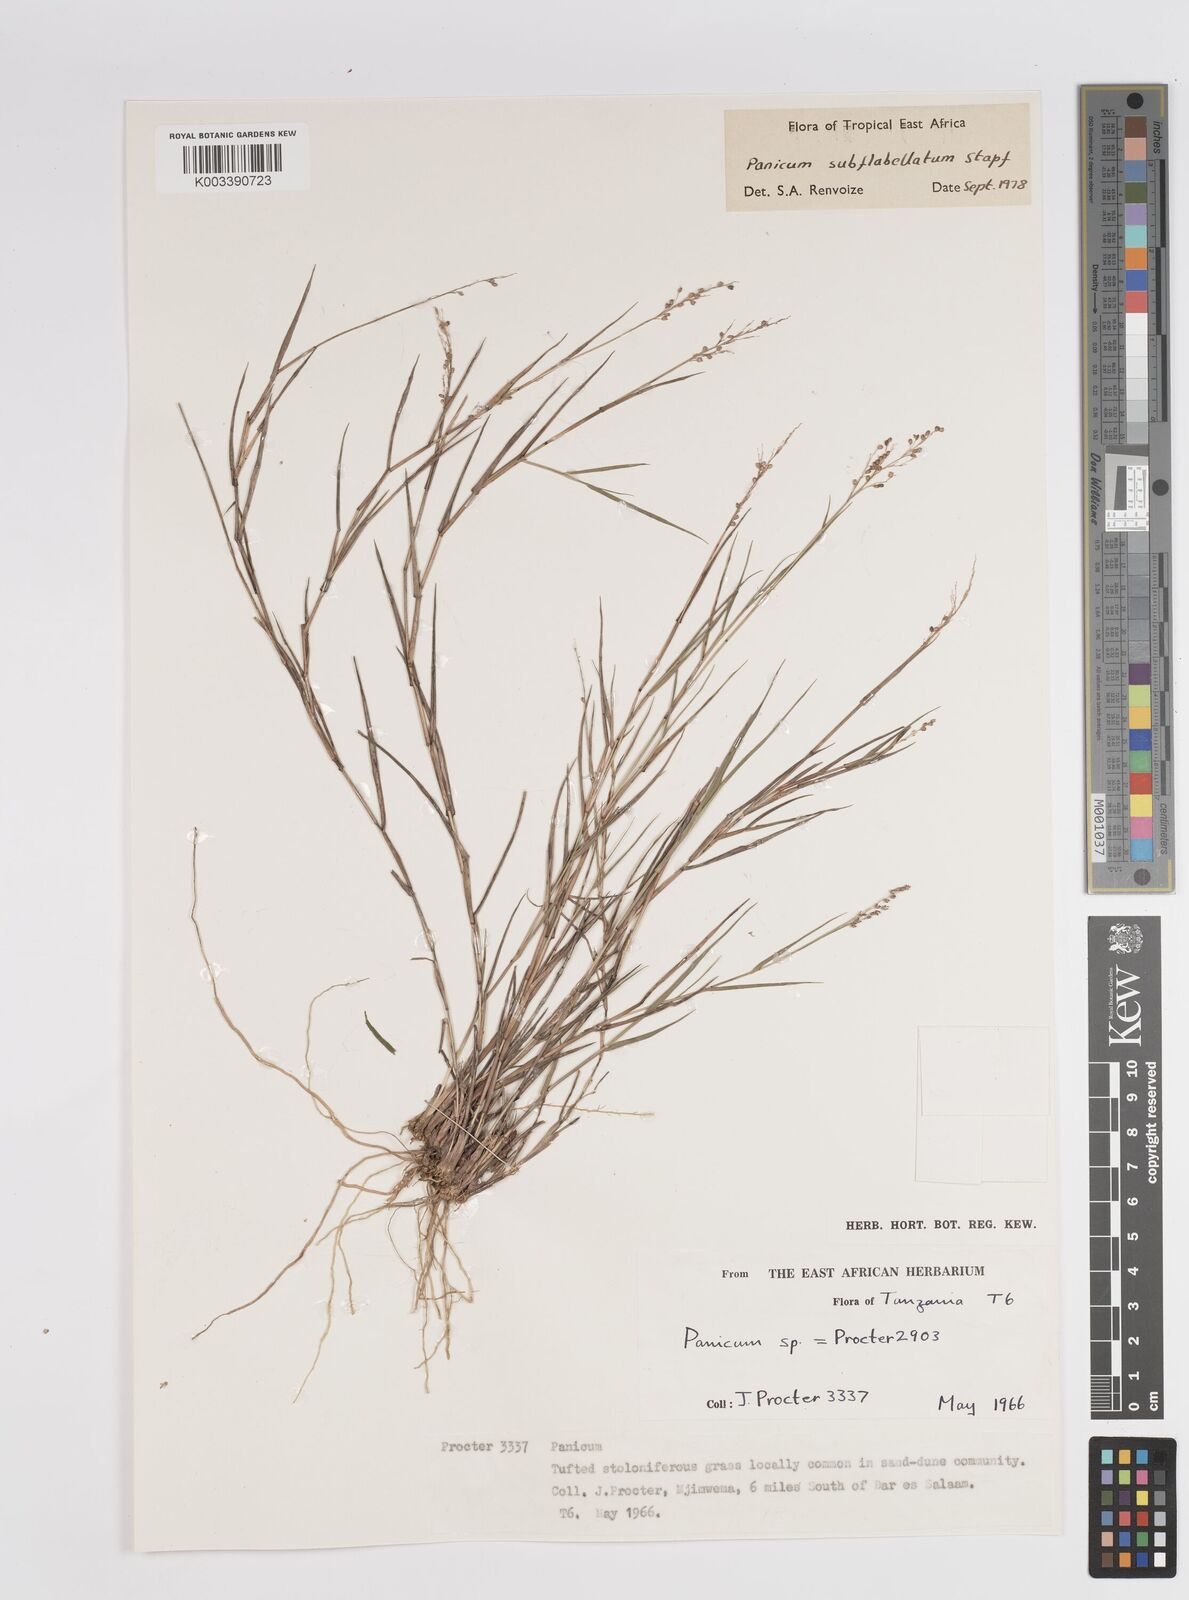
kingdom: Plantae
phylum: Tracheophyta
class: Liliopsida
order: Poales
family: Poaceae
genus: Panicum
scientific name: Panicum subflabellatum
